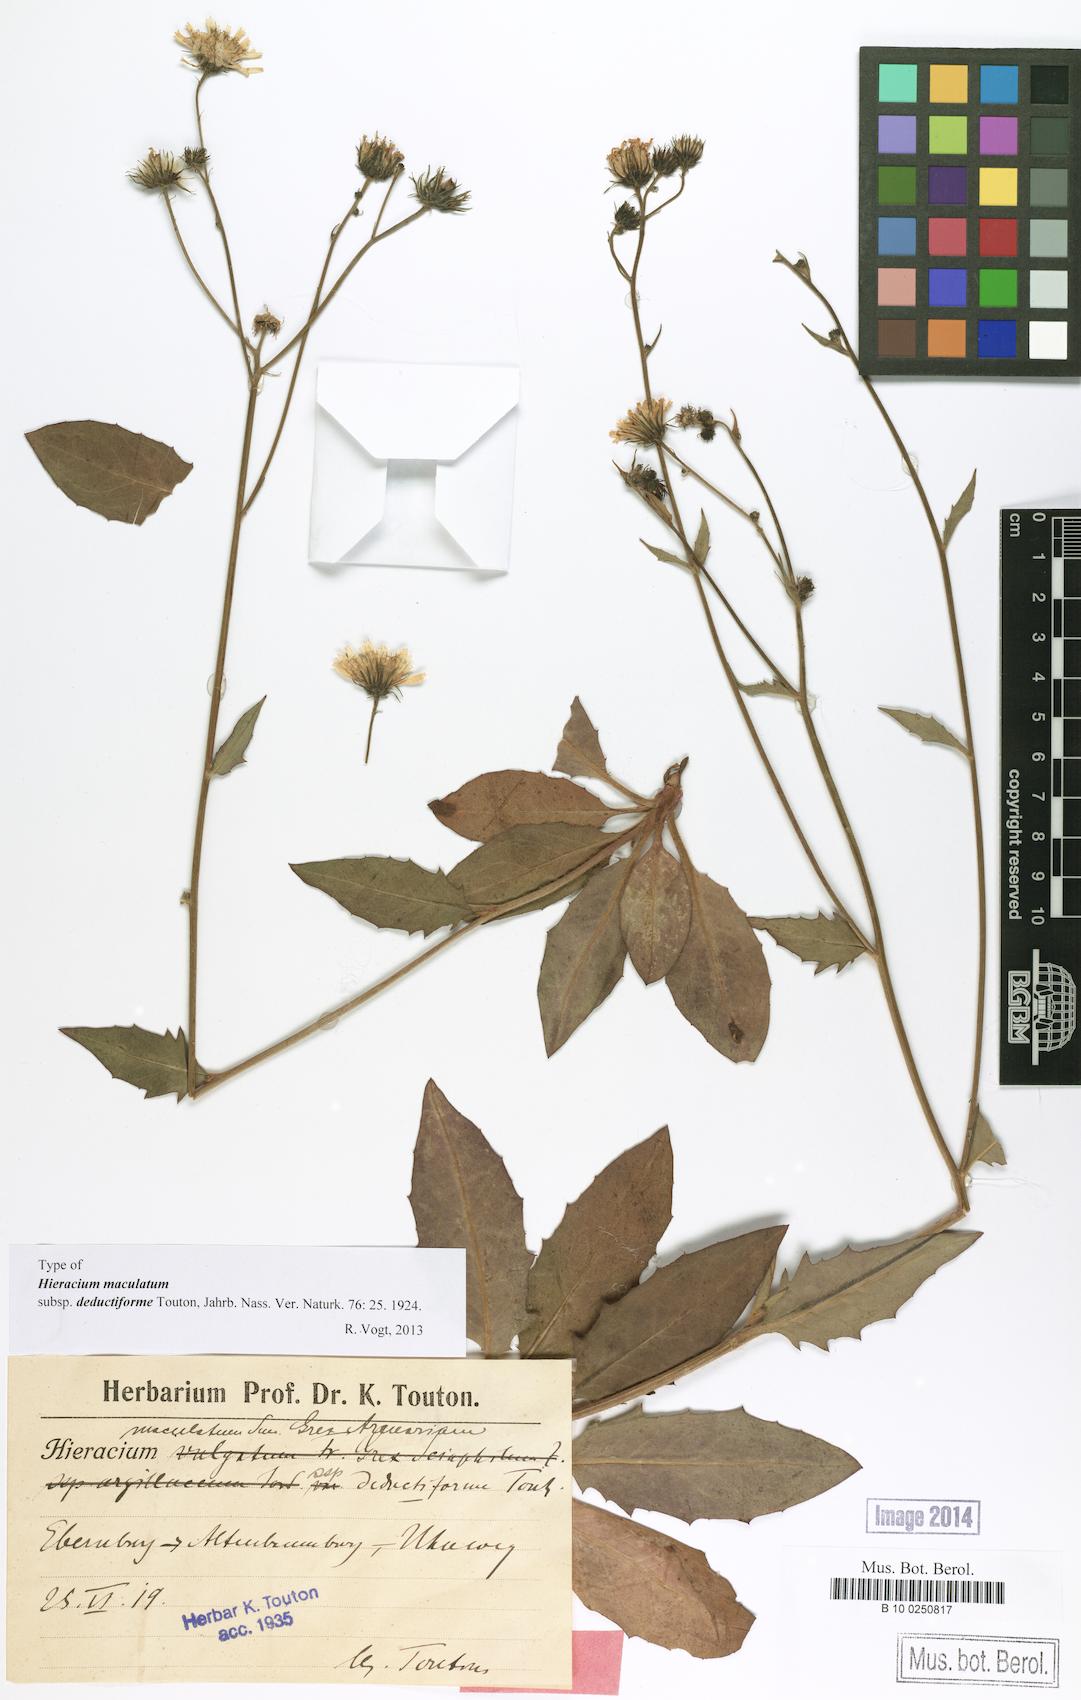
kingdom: Plantae
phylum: Tracheophyta
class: Magnoliopsida
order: Asterales
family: Asteraceae
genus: Hieracium
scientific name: Hieracium maculatum
